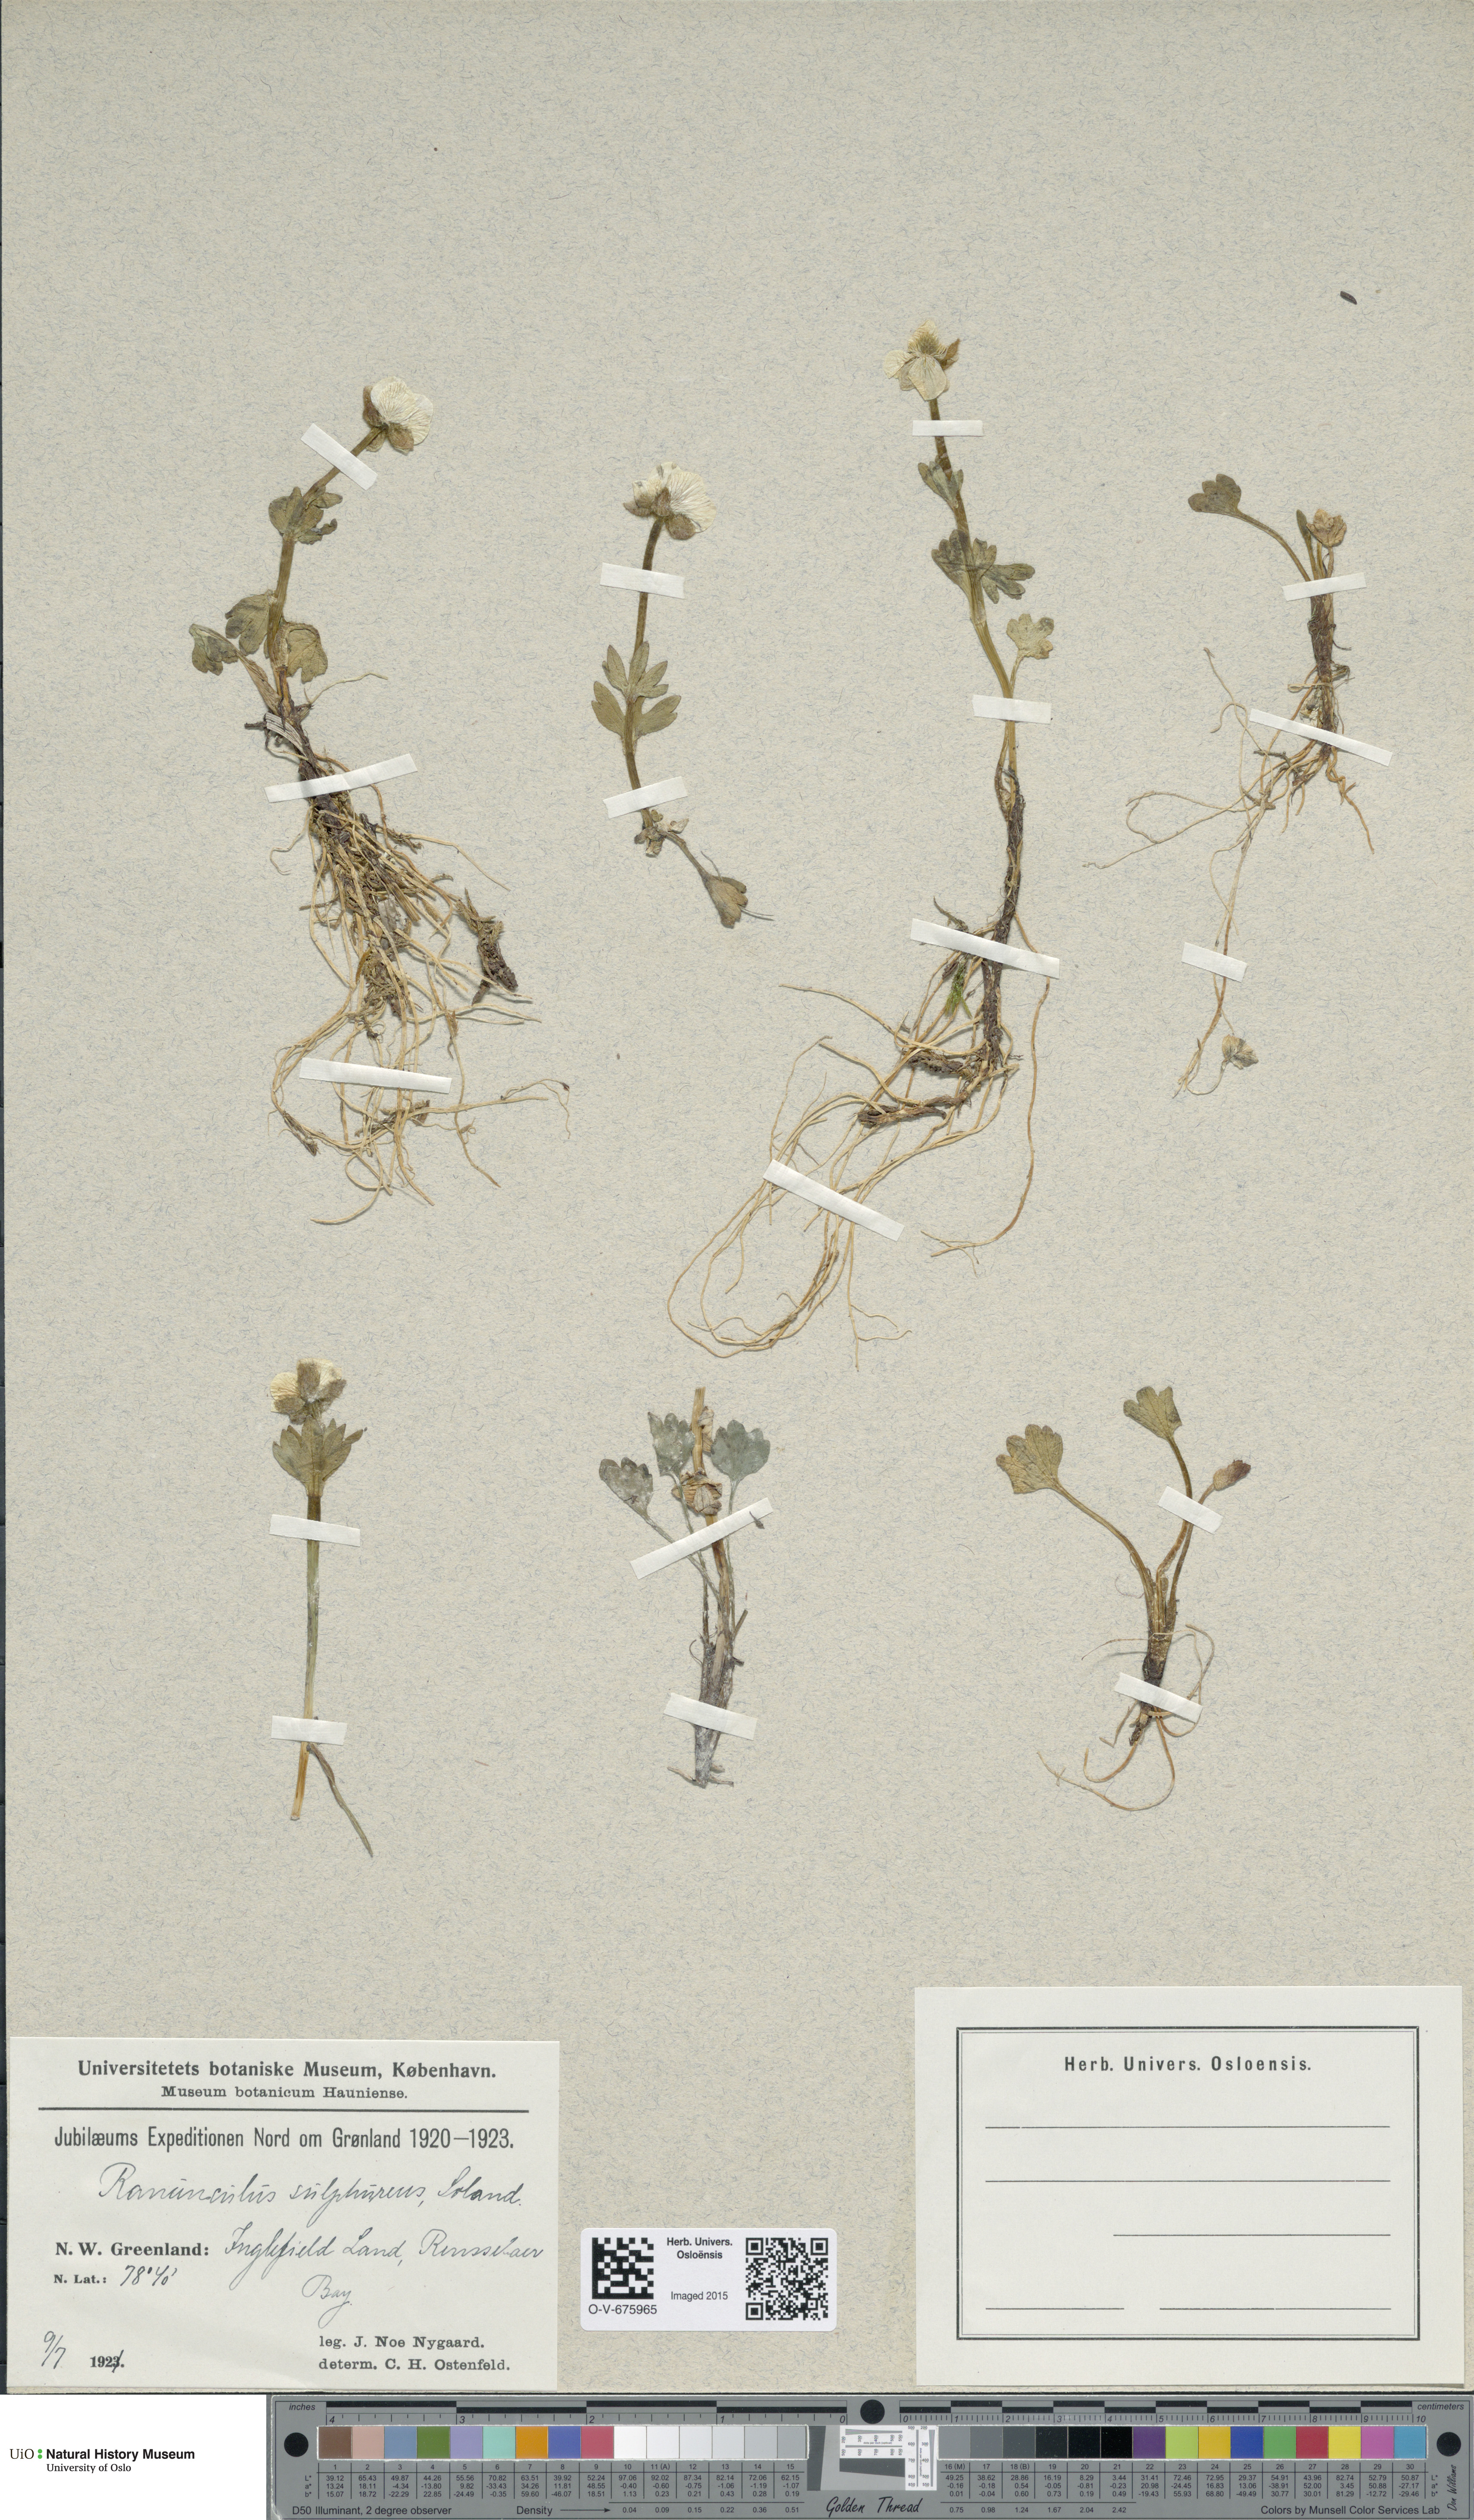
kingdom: Plantae
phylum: Tracheophyta
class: Magnoliopsida
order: Ranunculales
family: Ranunculaceae
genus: Ranunculus
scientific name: Ranunculus sulphureus
